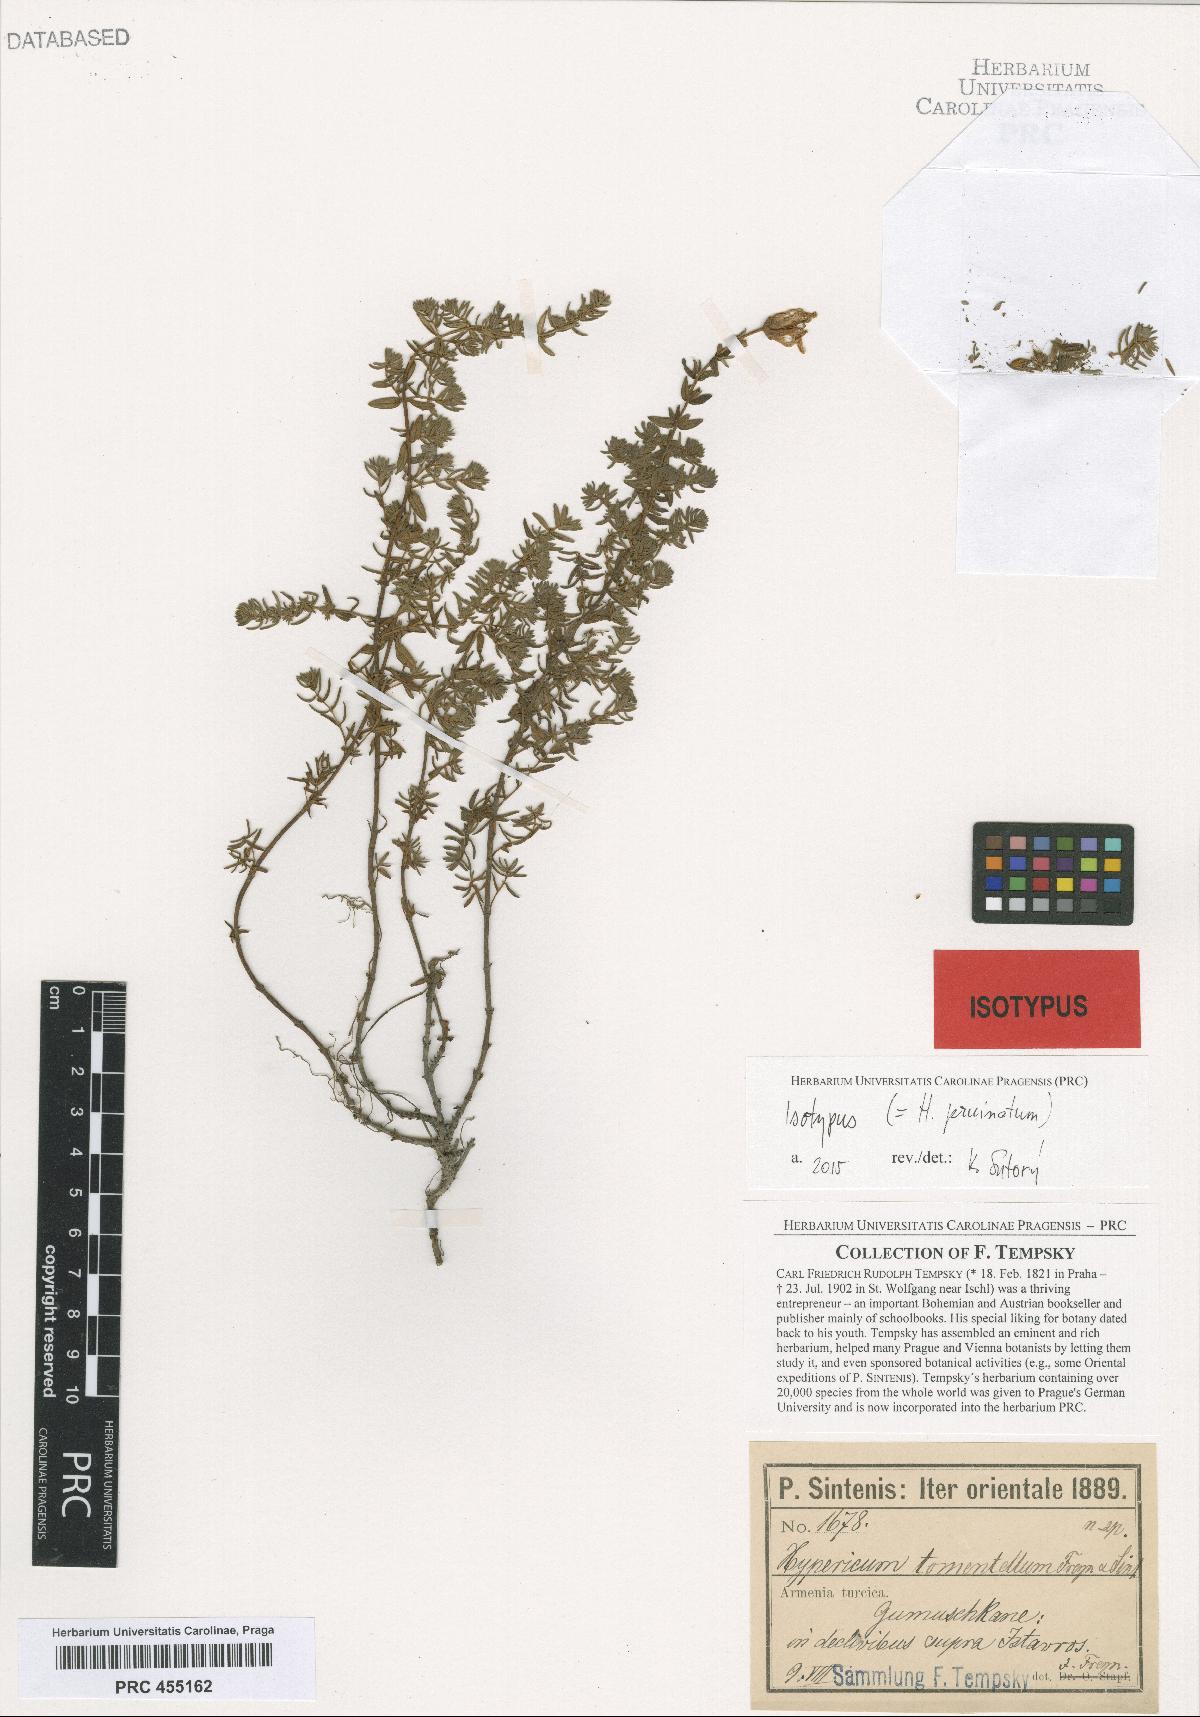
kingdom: Plantae
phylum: Tracheophyta
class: Magnoliopsida
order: Malpighiales
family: Hypericaceae
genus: Hypericum
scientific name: Hypericum pruinatum
